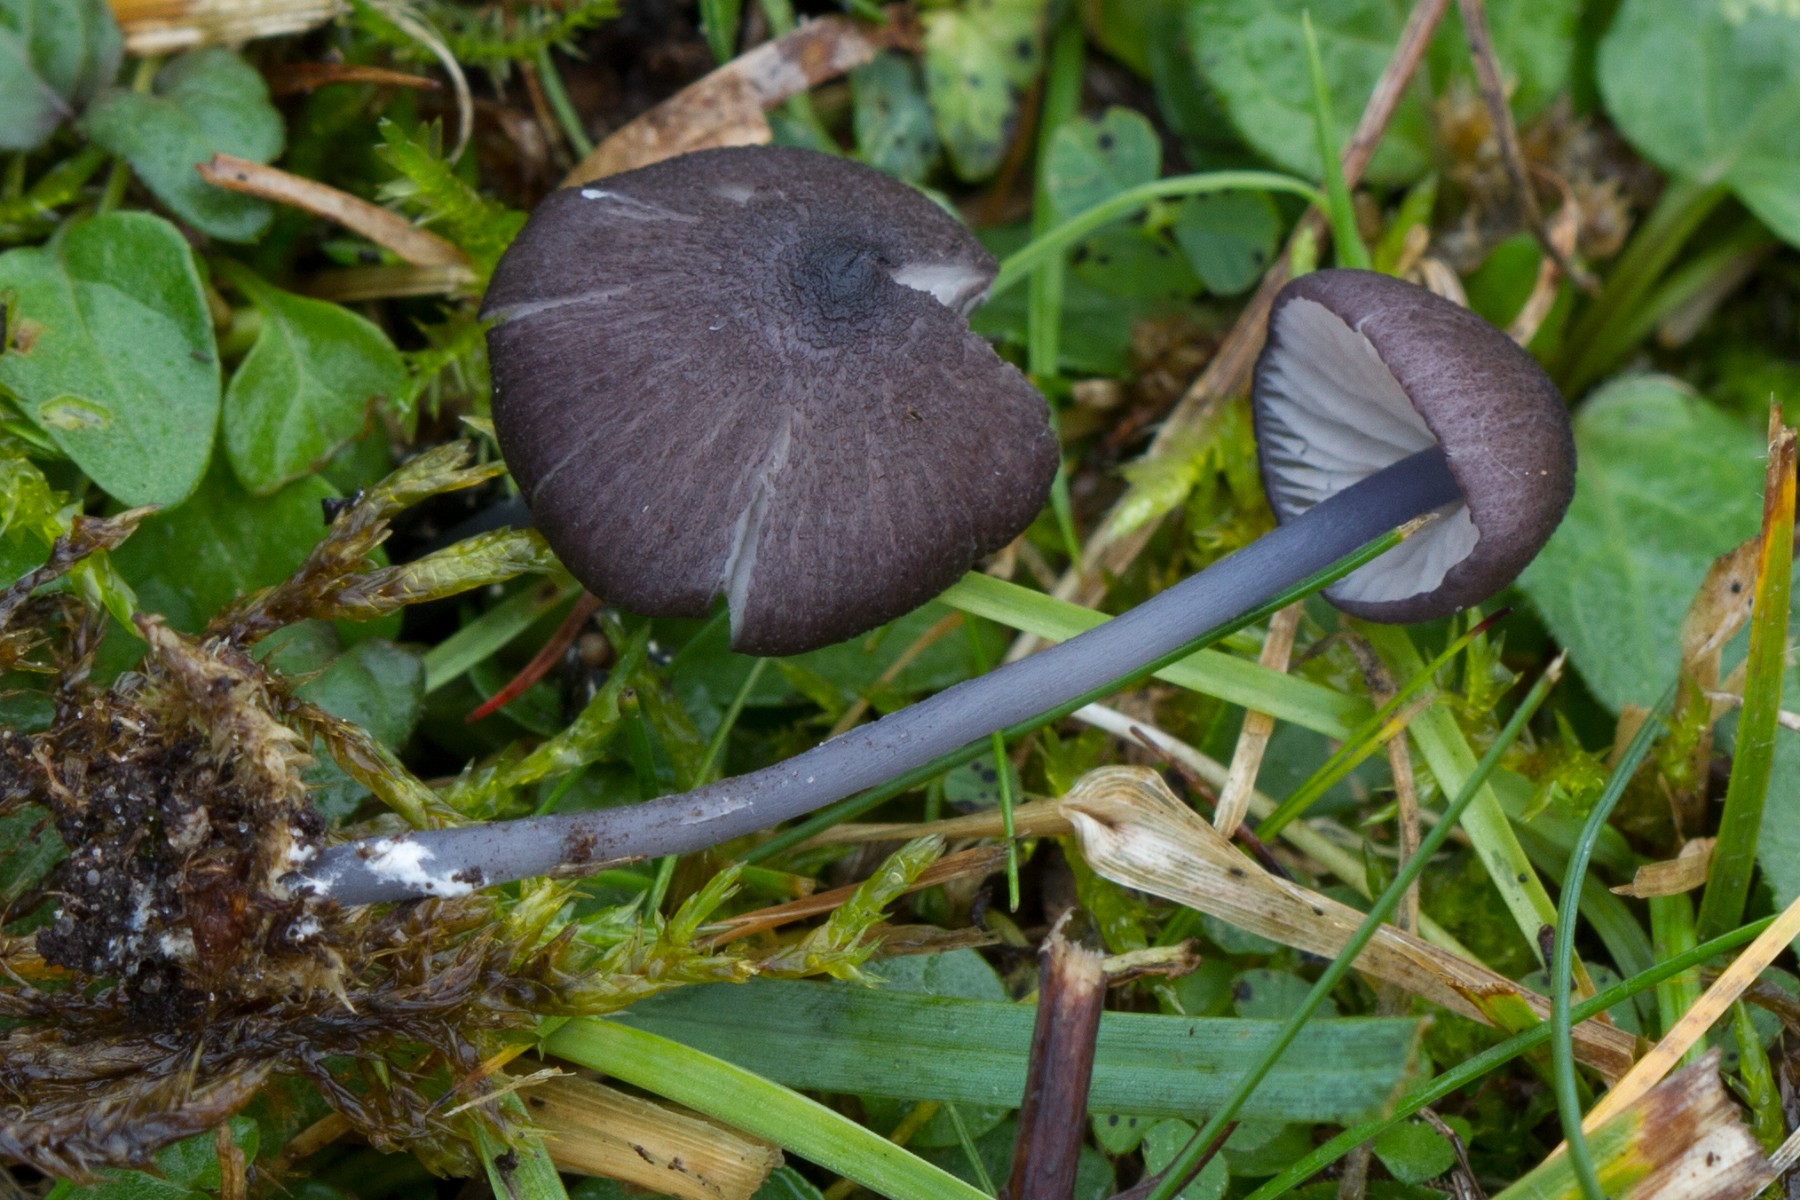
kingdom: Fungi
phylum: Basidiomycota
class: Agaricomycetes
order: Agaricales
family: Entolomataceae
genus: Entoloma
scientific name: Entoloma poliopus
